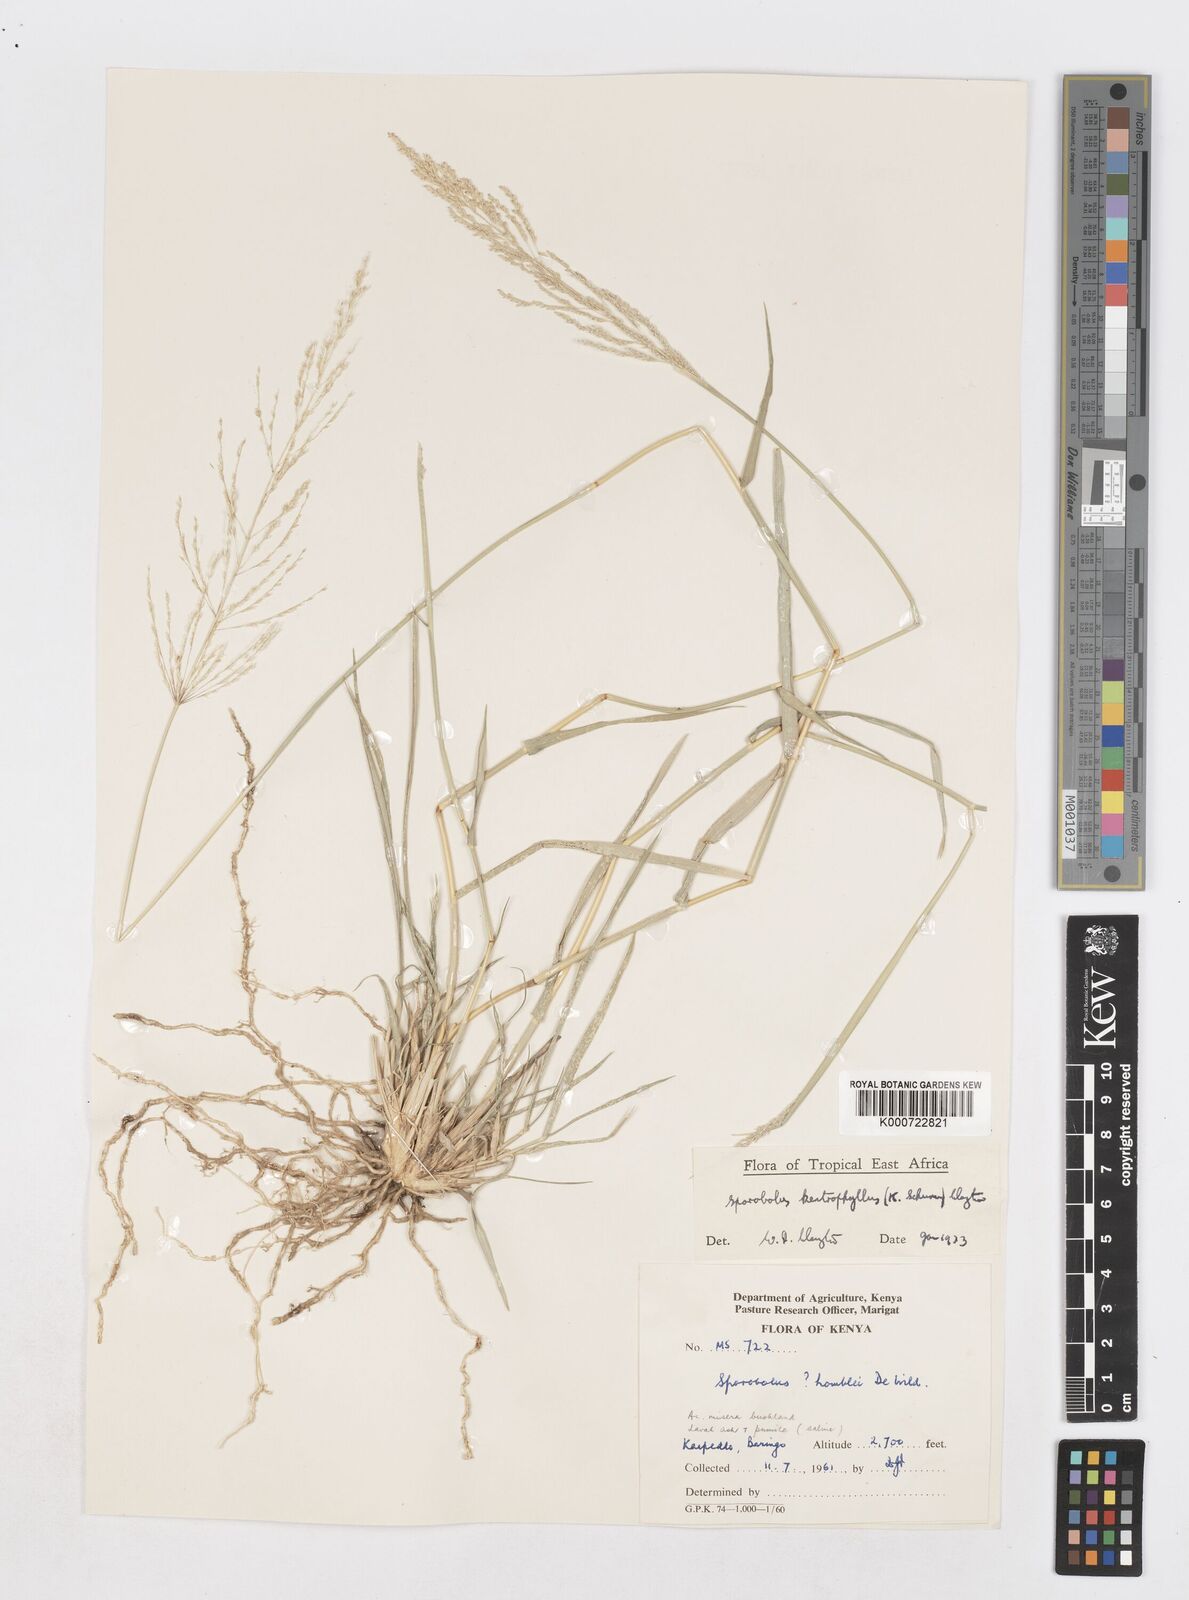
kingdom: Plantae
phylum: Tracheophyta
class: Liliopsida
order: Poales
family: Poaceae
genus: Sporobolus
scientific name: Sporobolus ioclados
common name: Pan dropseed
